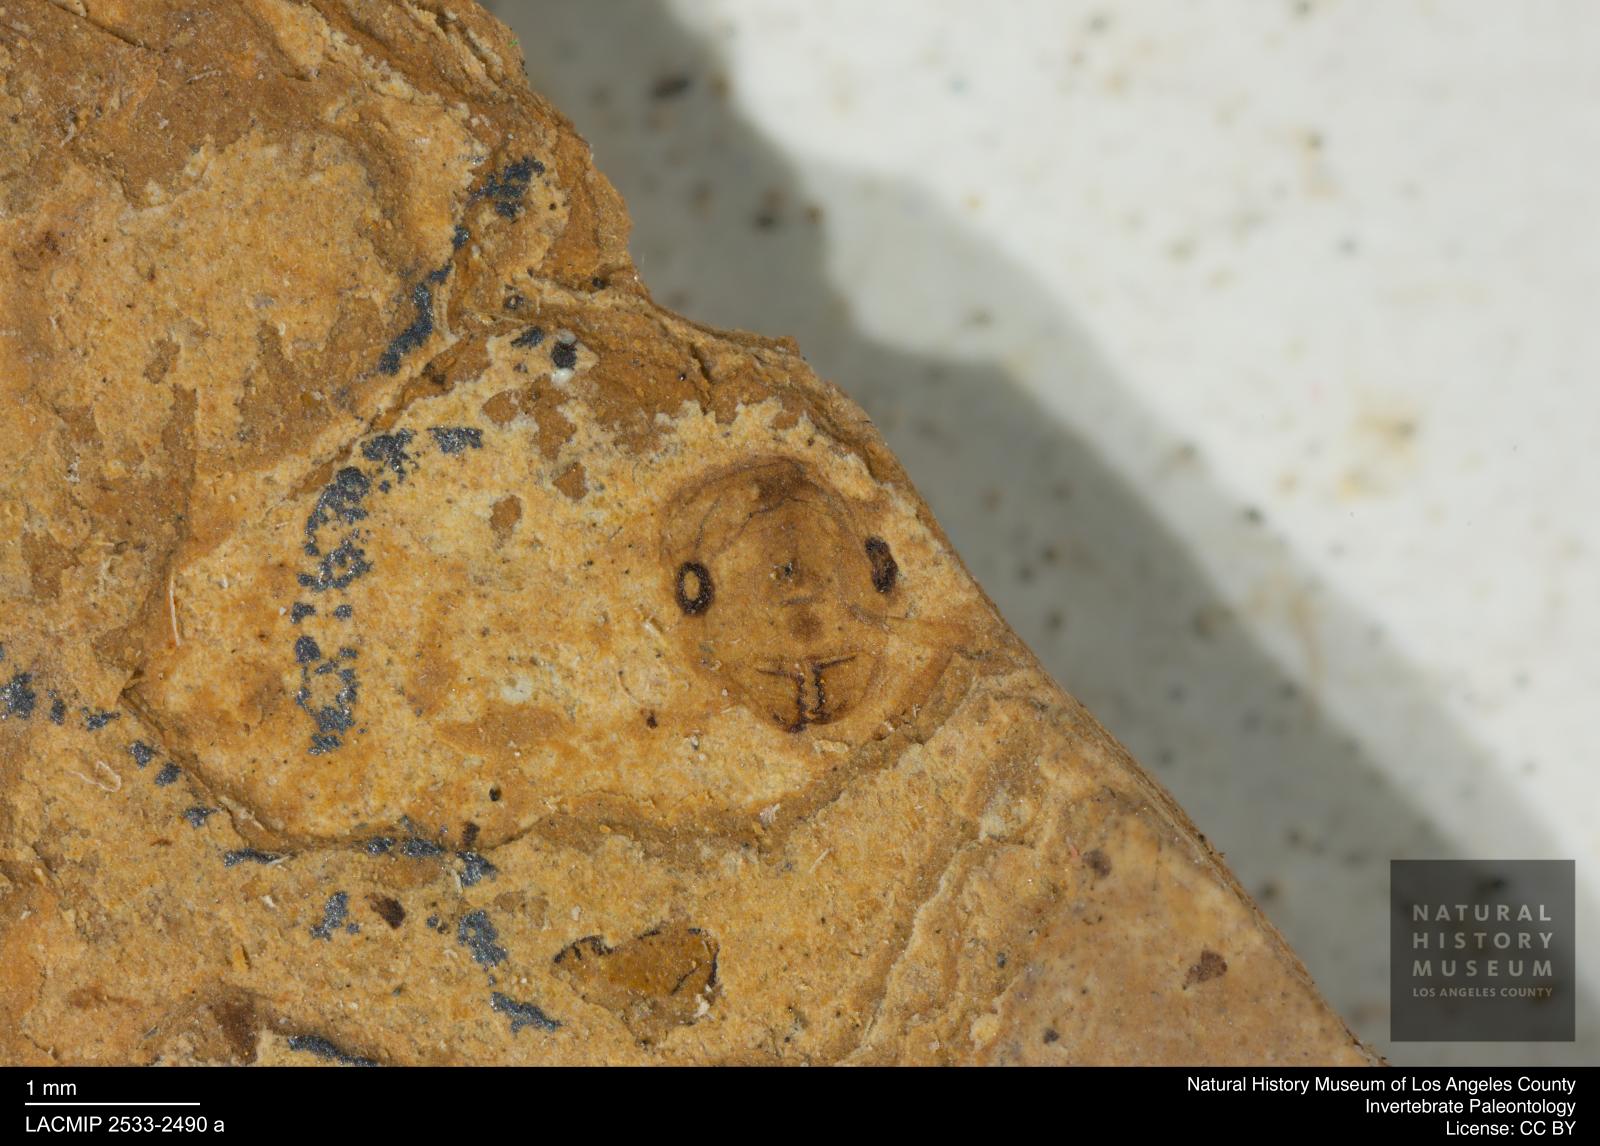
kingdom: Animalia
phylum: Arthropoda
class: Insecta
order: Hymenoptera
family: Formicidae
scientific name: Formicidae
